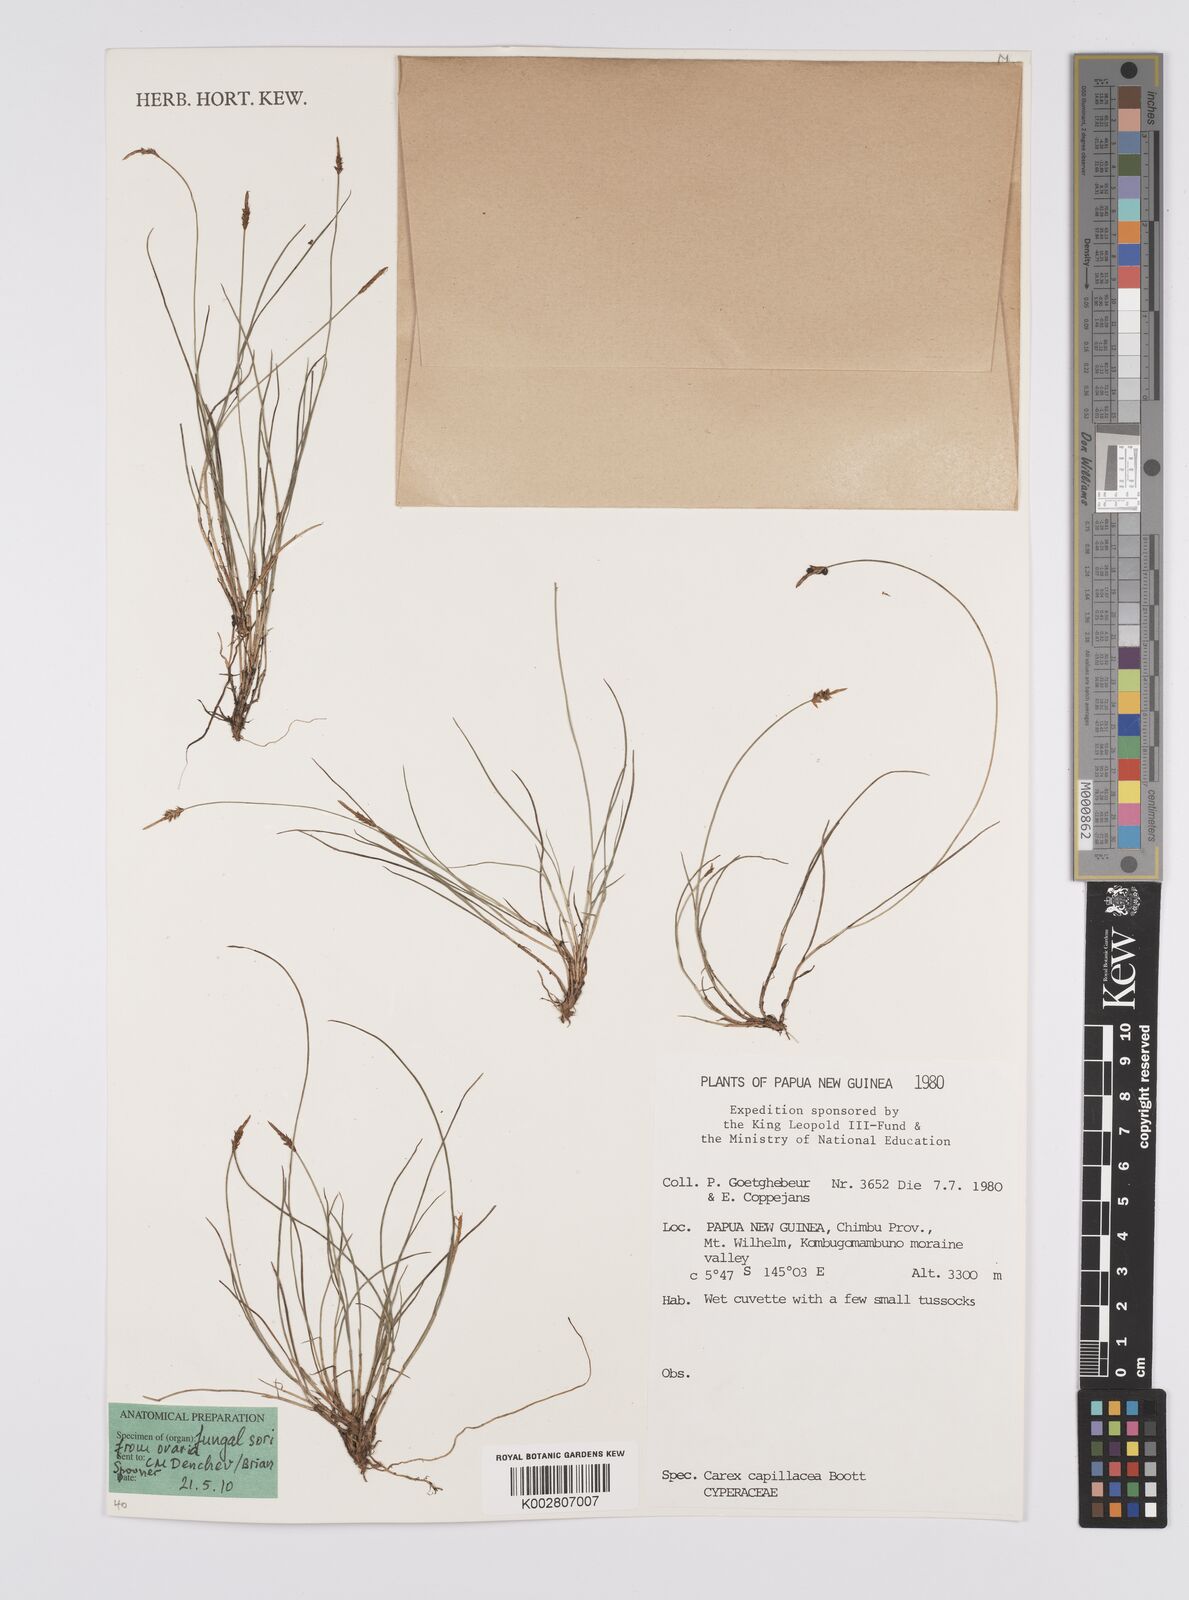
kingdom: Plantae
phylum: Tracheophyta
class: Liliopsida
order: Poales
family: Cyperaceae
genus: Carex
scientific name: Carex capillacea
